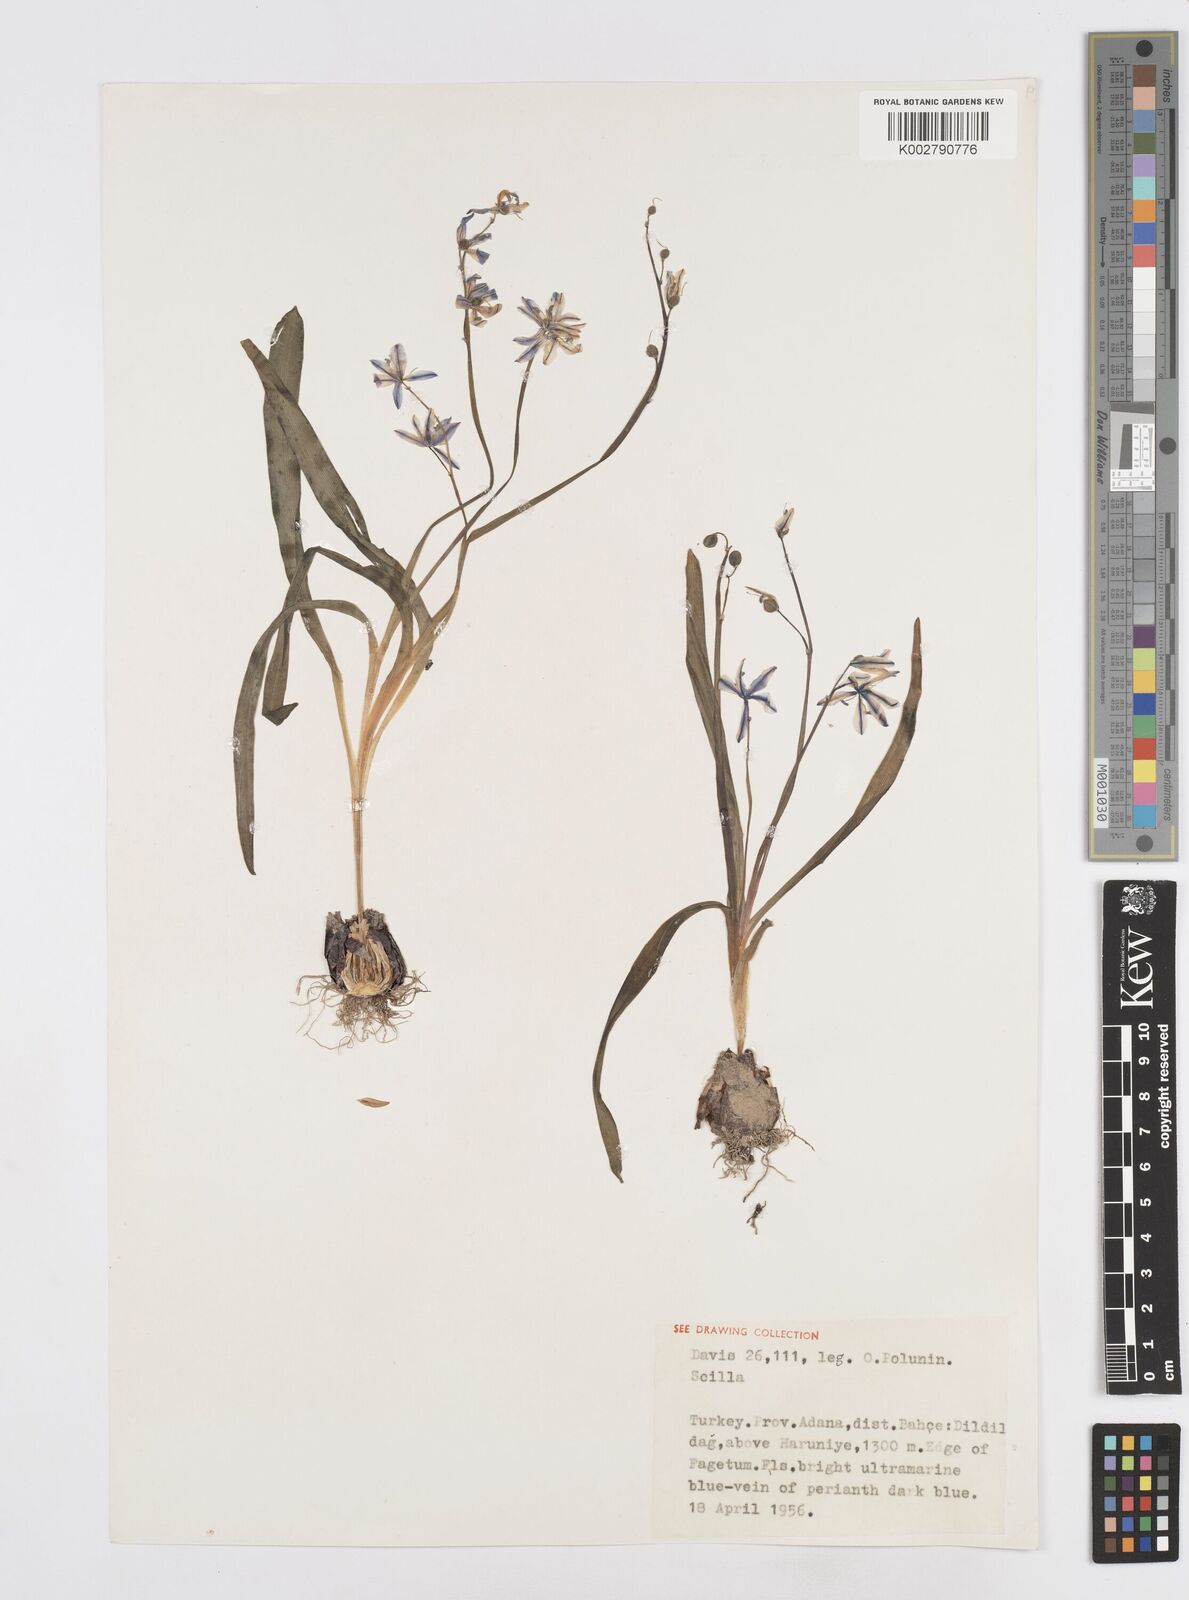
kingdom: Plantae
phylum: Tracheophyta
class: Liliopsida
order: Asparagales
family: Asparagaceae
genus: Scilla
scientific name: Scilla siberica
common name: Siberian squill
